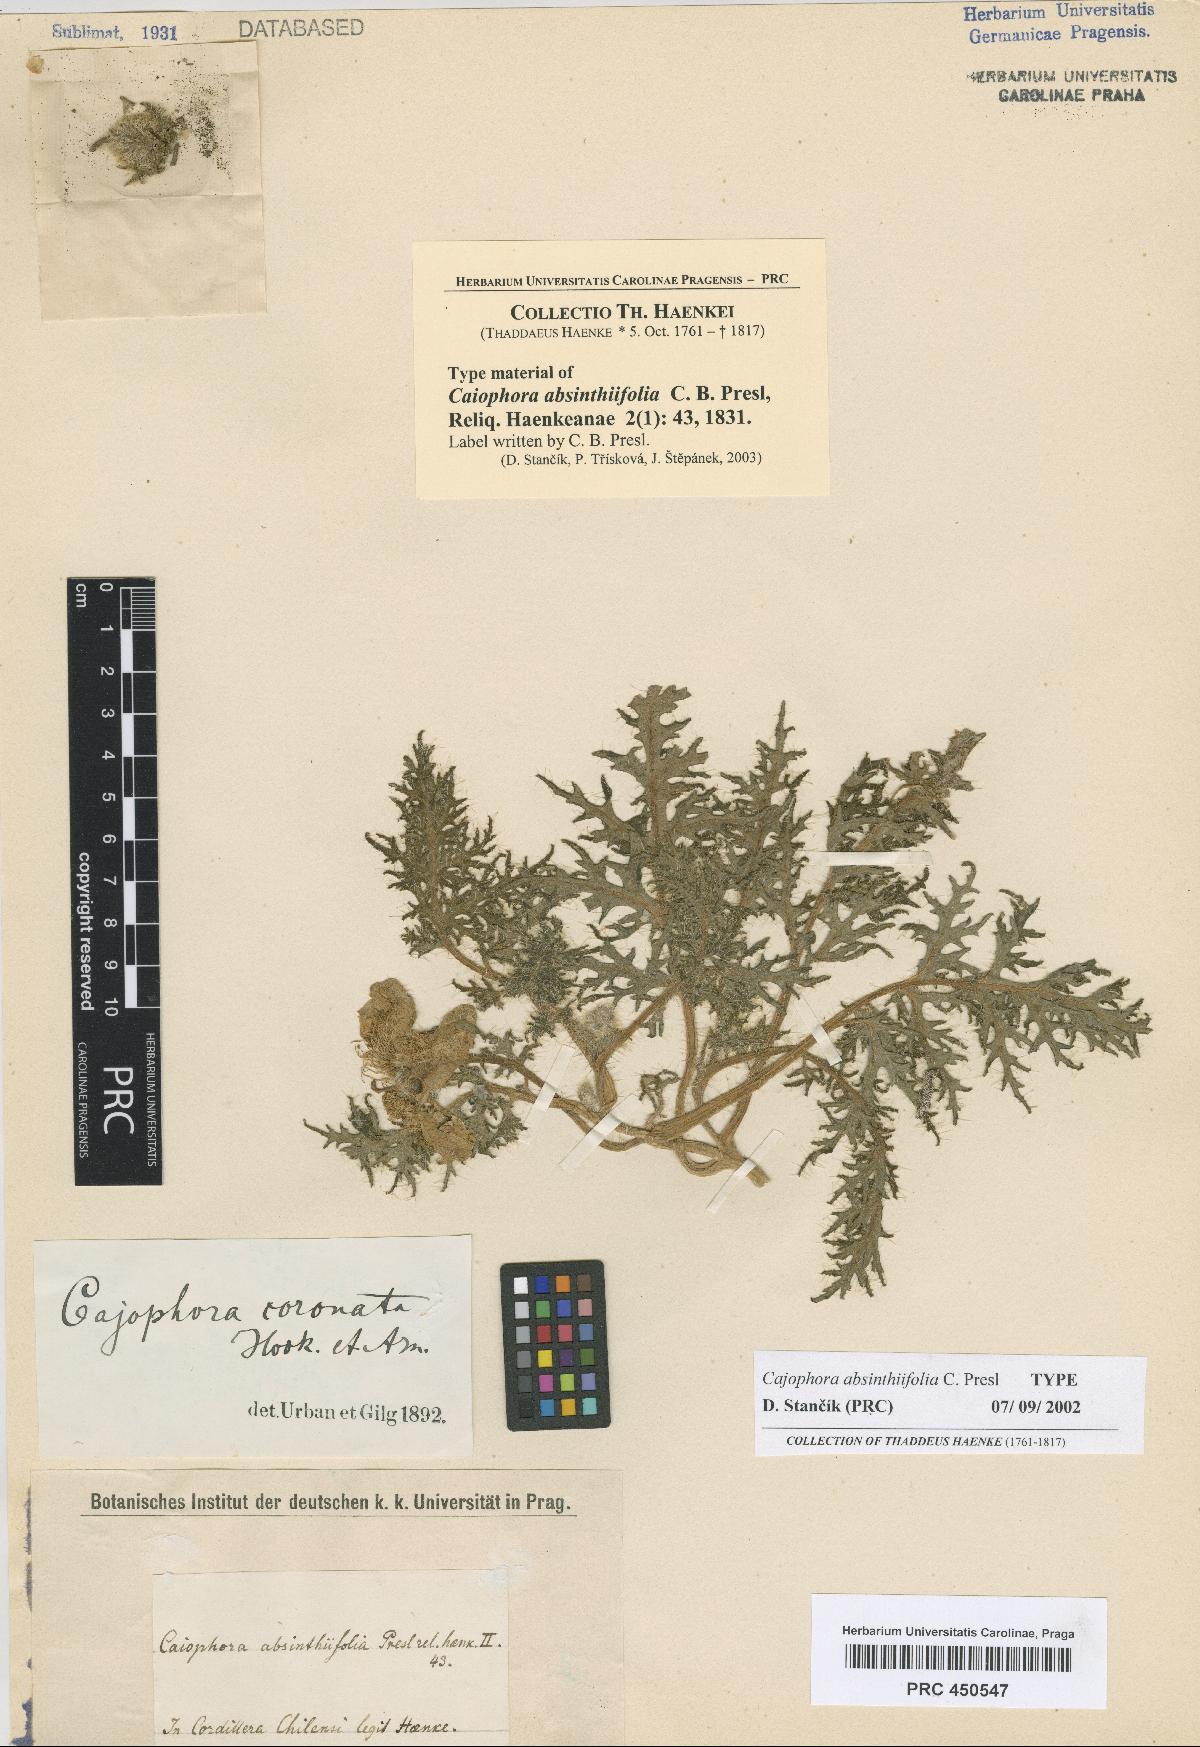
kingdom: Plantae
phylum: Tracheophyta
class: Magnoliopsida
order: Cornales
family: Loasaceae
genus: Caiophora
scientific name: Caiophora coronata
